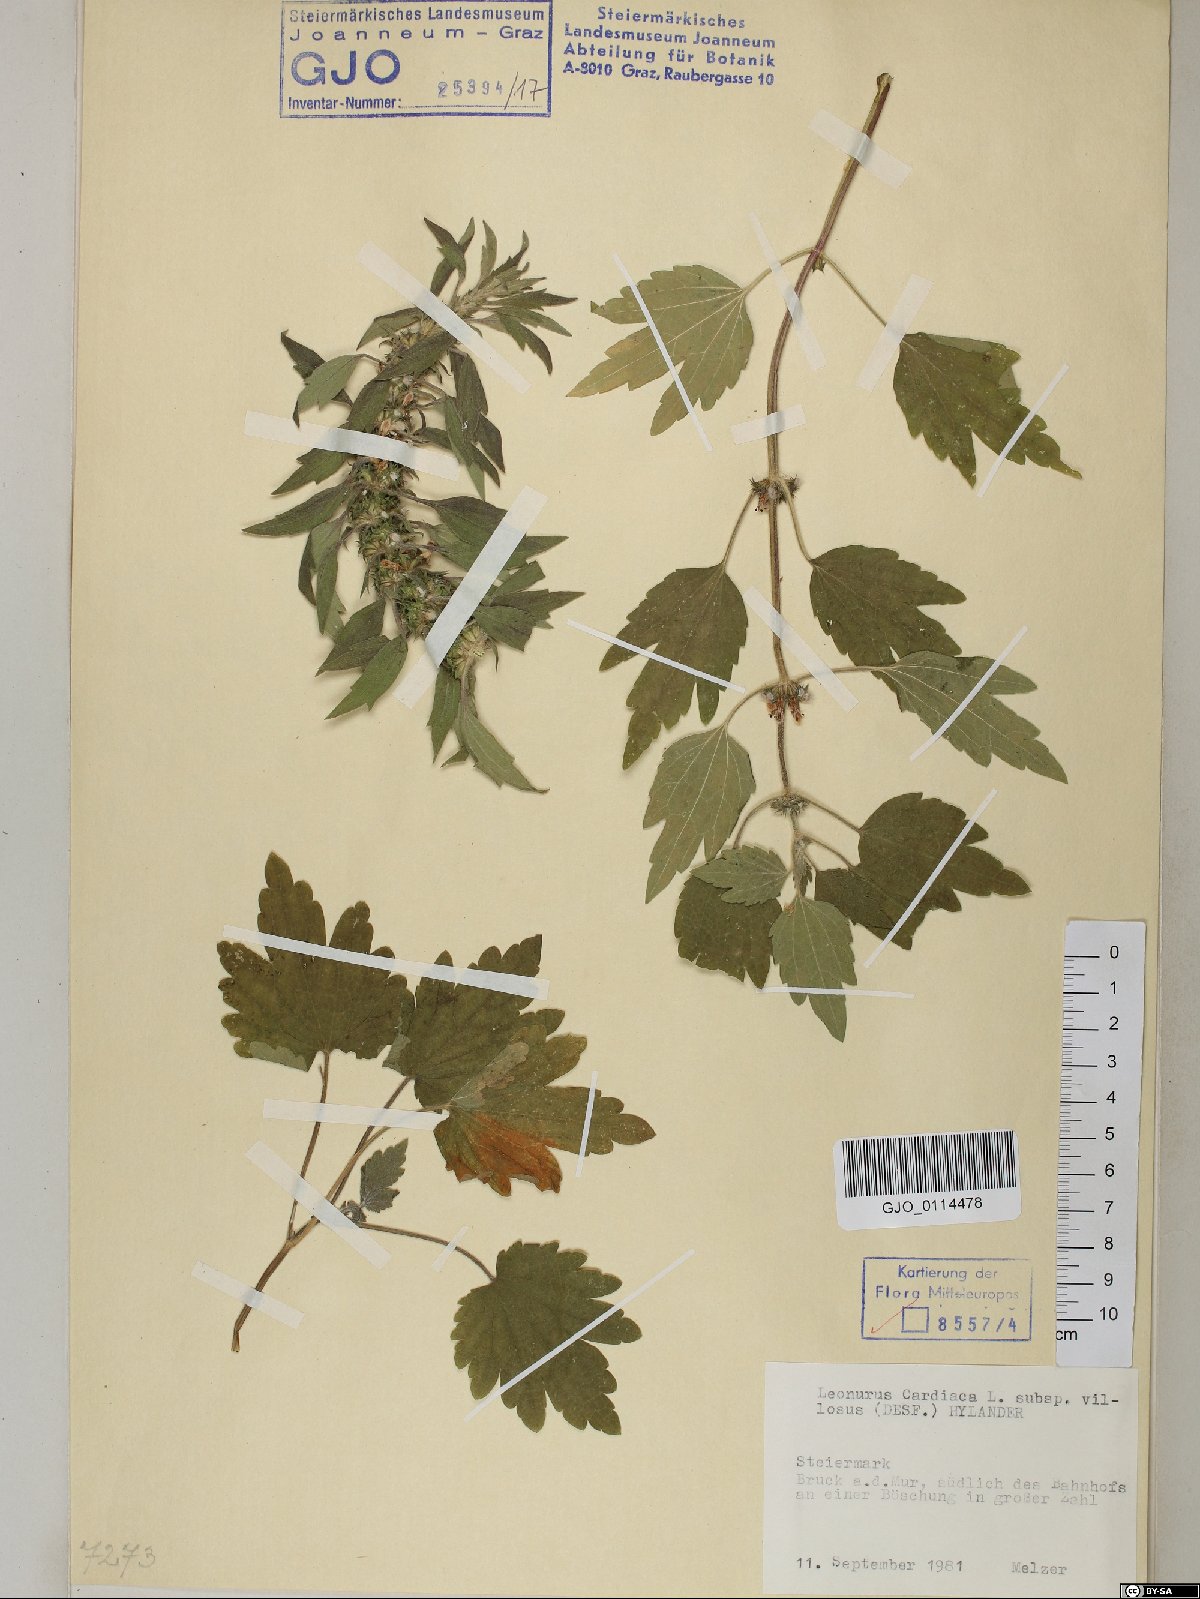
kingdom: Plantae
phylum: Tracheophyta
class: Magnoliopsida
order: Lamiales
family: Lamiaceae
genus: Leonurus
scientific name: Leonurus quinquelobatus
